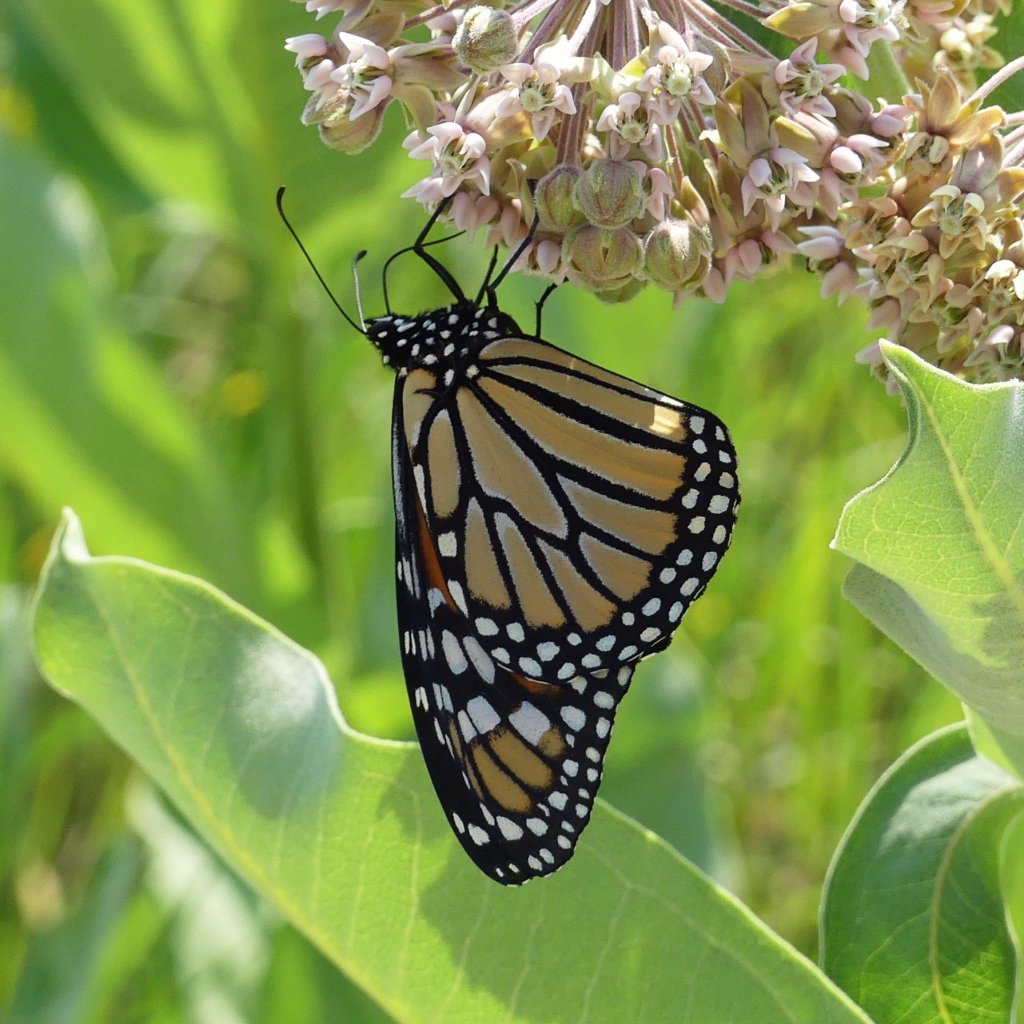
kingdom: Animalia
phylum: Arthropoda
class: Insecta
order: Lepidoptera
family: Nymphalidae
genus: Danaus
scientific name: Danaus plexippus
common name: Monarch
